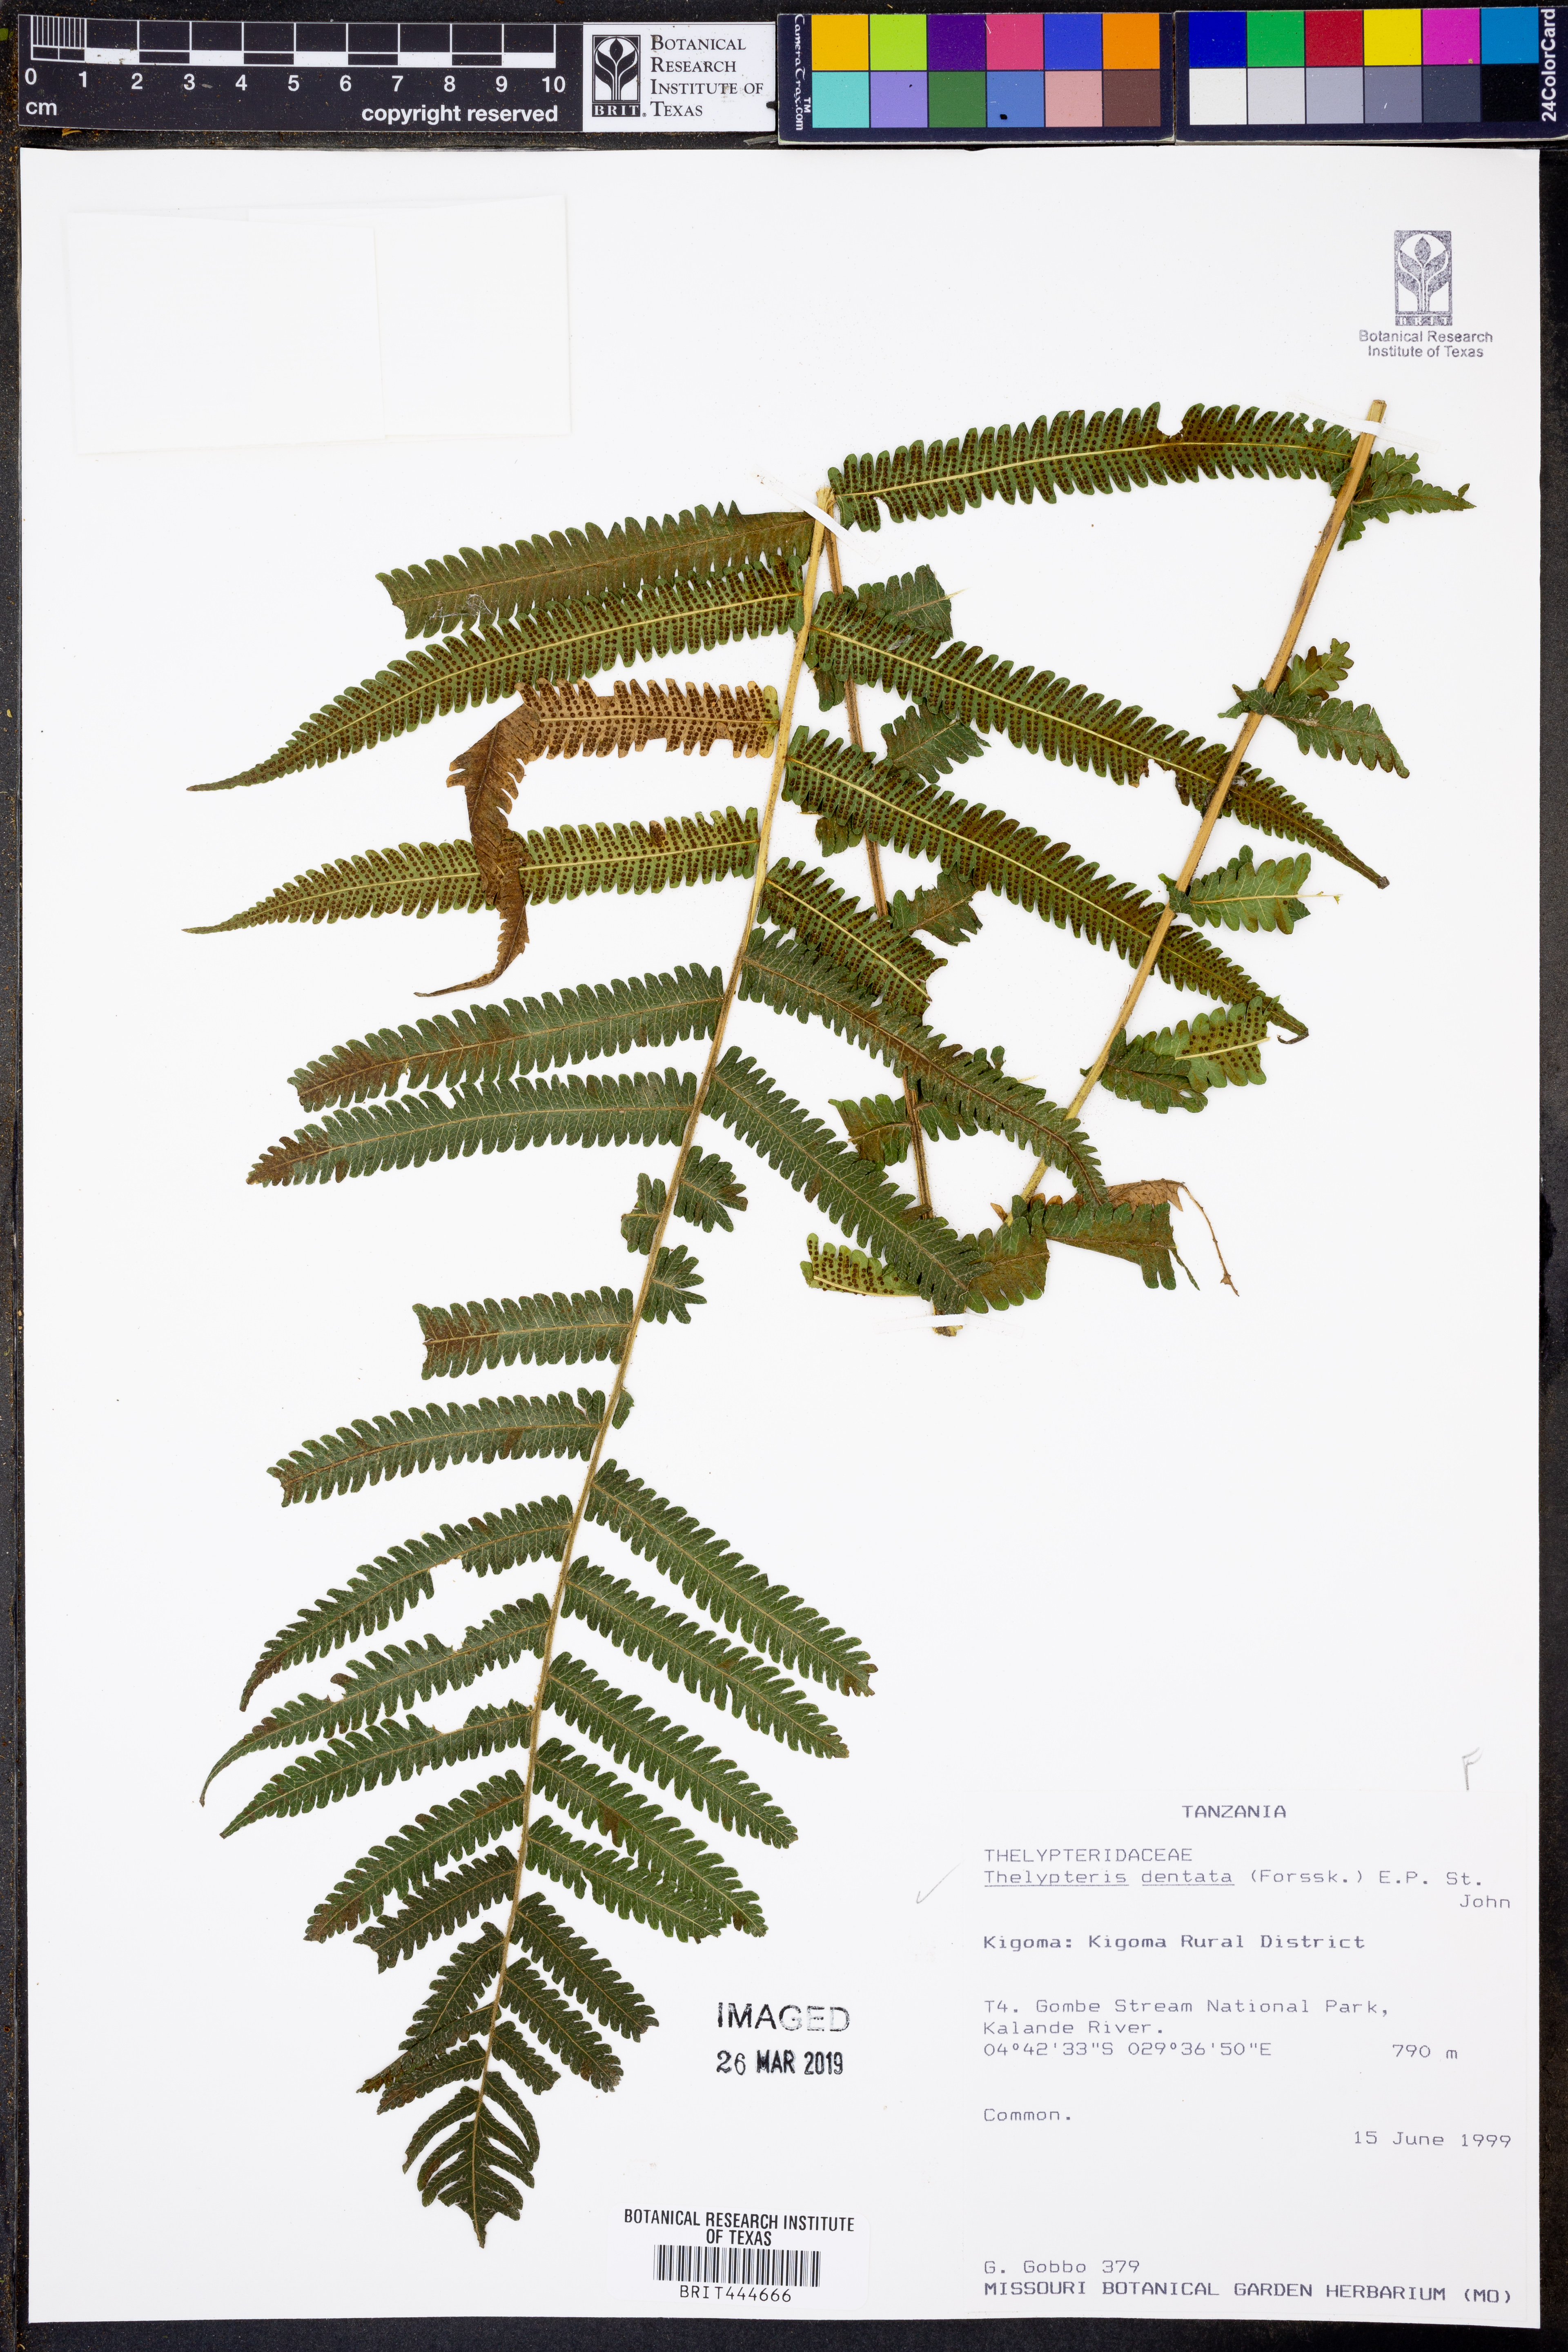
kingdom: Plantae
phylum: Tracheophyta
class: Polypodiopsida
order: Polypodiales
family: Thelypteridaceae
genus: Christella
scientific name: Christella dentata
